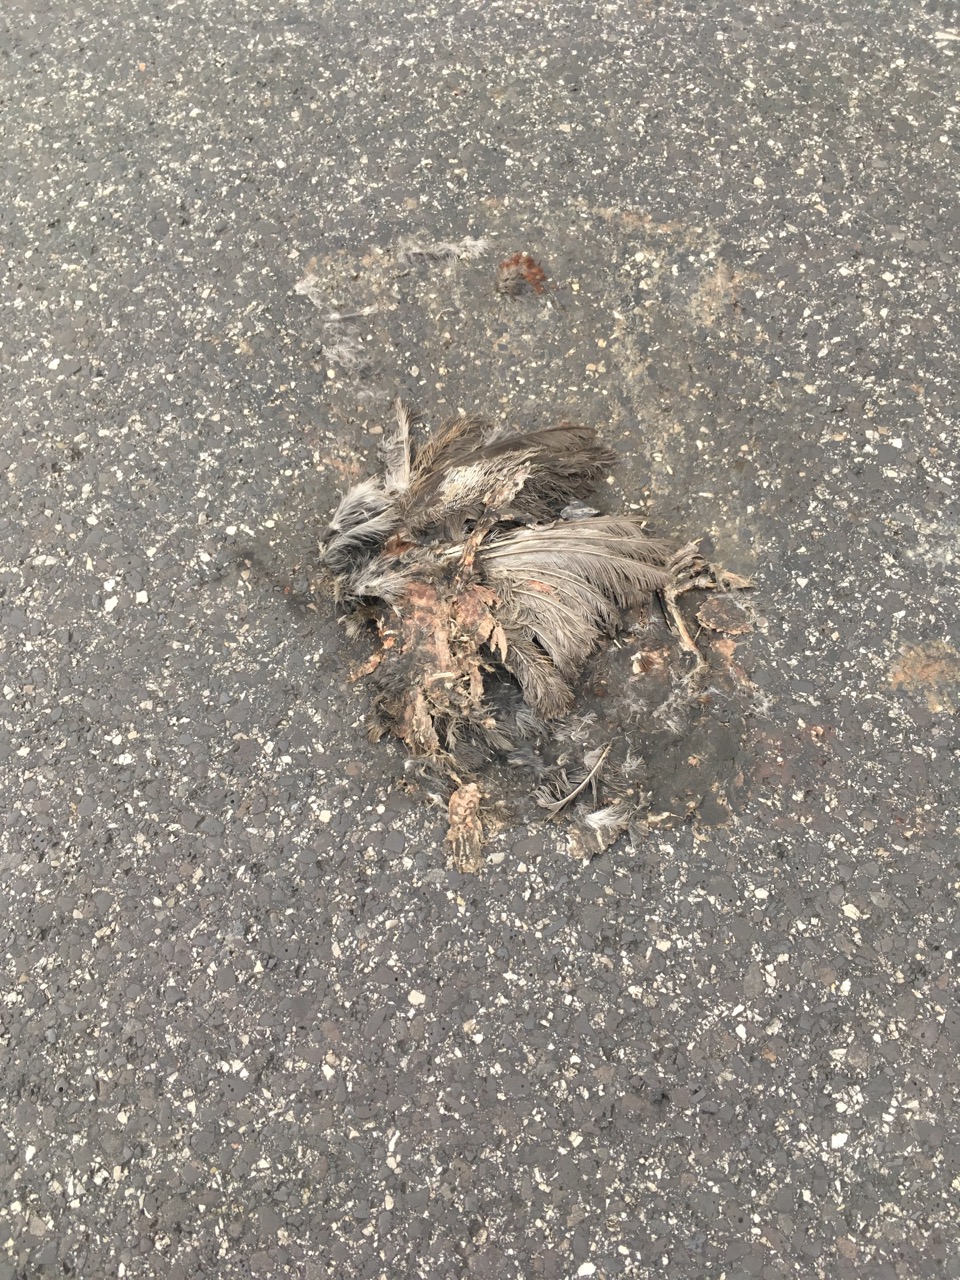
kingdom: Animalia
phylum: Chordata
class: Aves
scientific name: Aves
